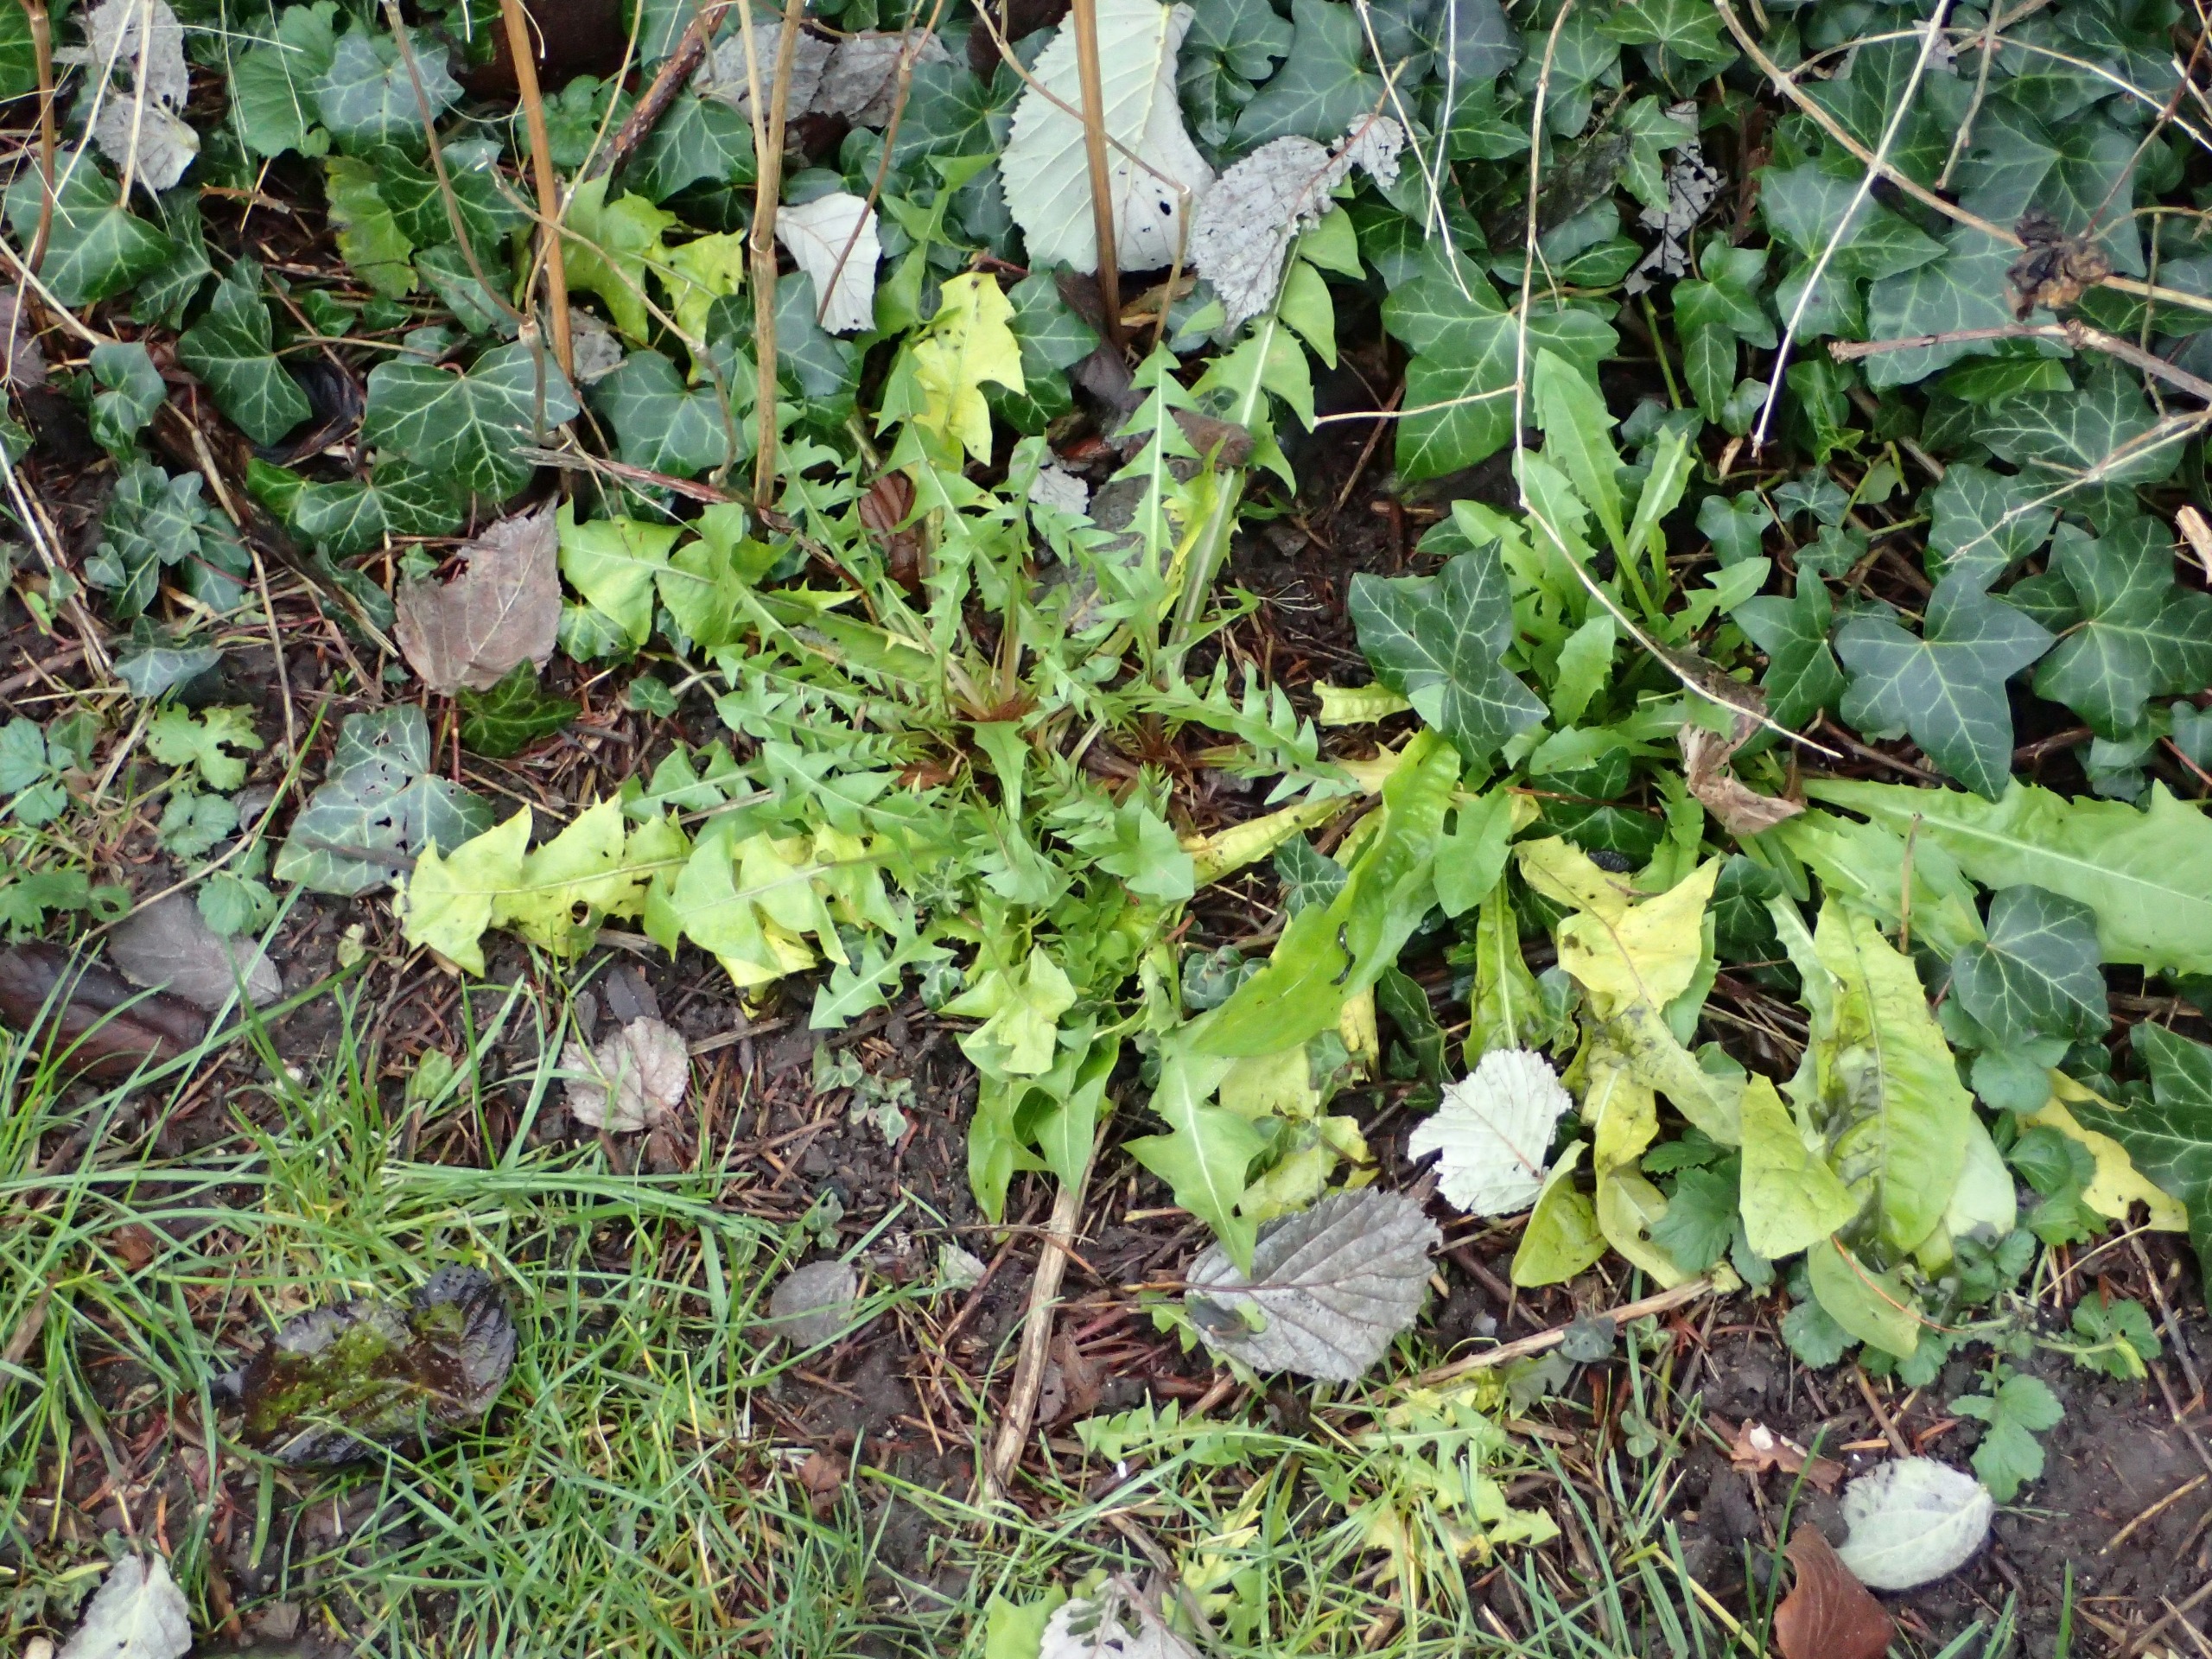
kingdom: Plantae
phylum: Tracheophyta
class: Magnoliopsida
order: Asterales
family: Asteraceae
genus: Taraxacum
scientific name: Taraxacum
